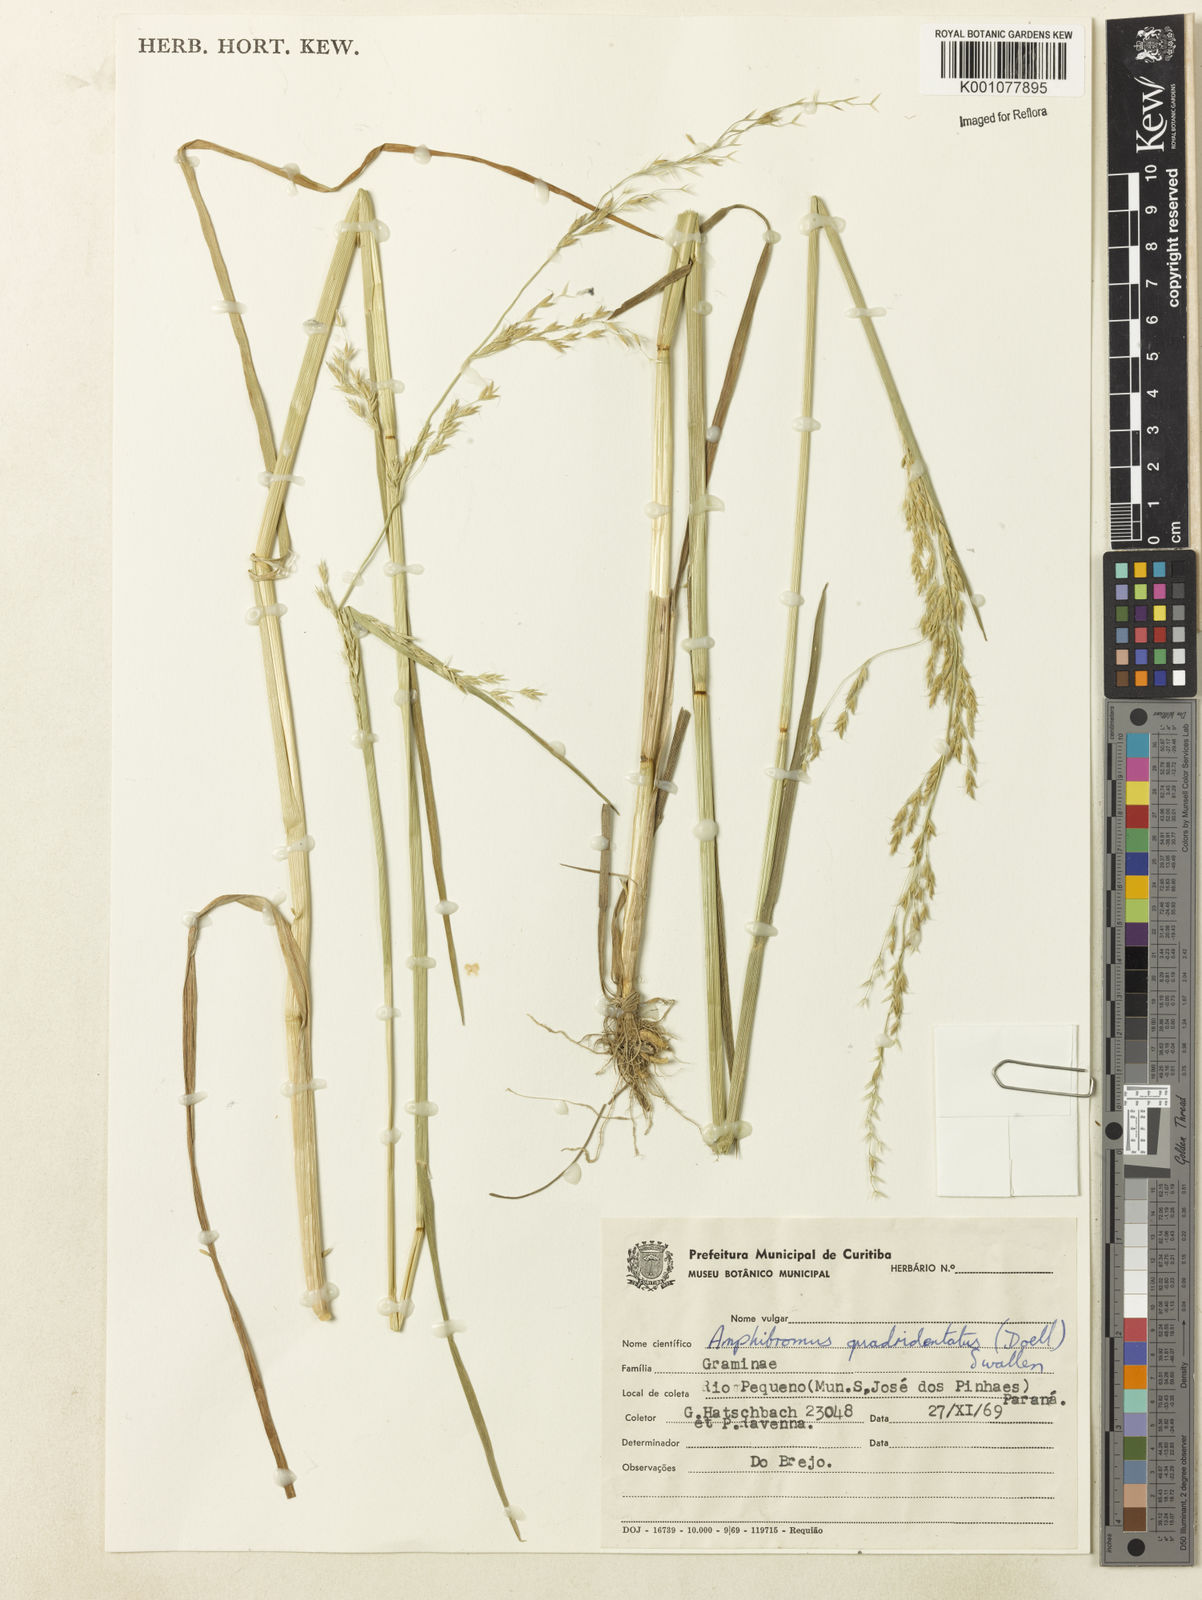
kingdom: Plantae
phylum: Tracheophyta
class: Liliopsida
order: Poales
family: Poaceae
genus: Helictotrichon
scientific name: Helictotrichon
